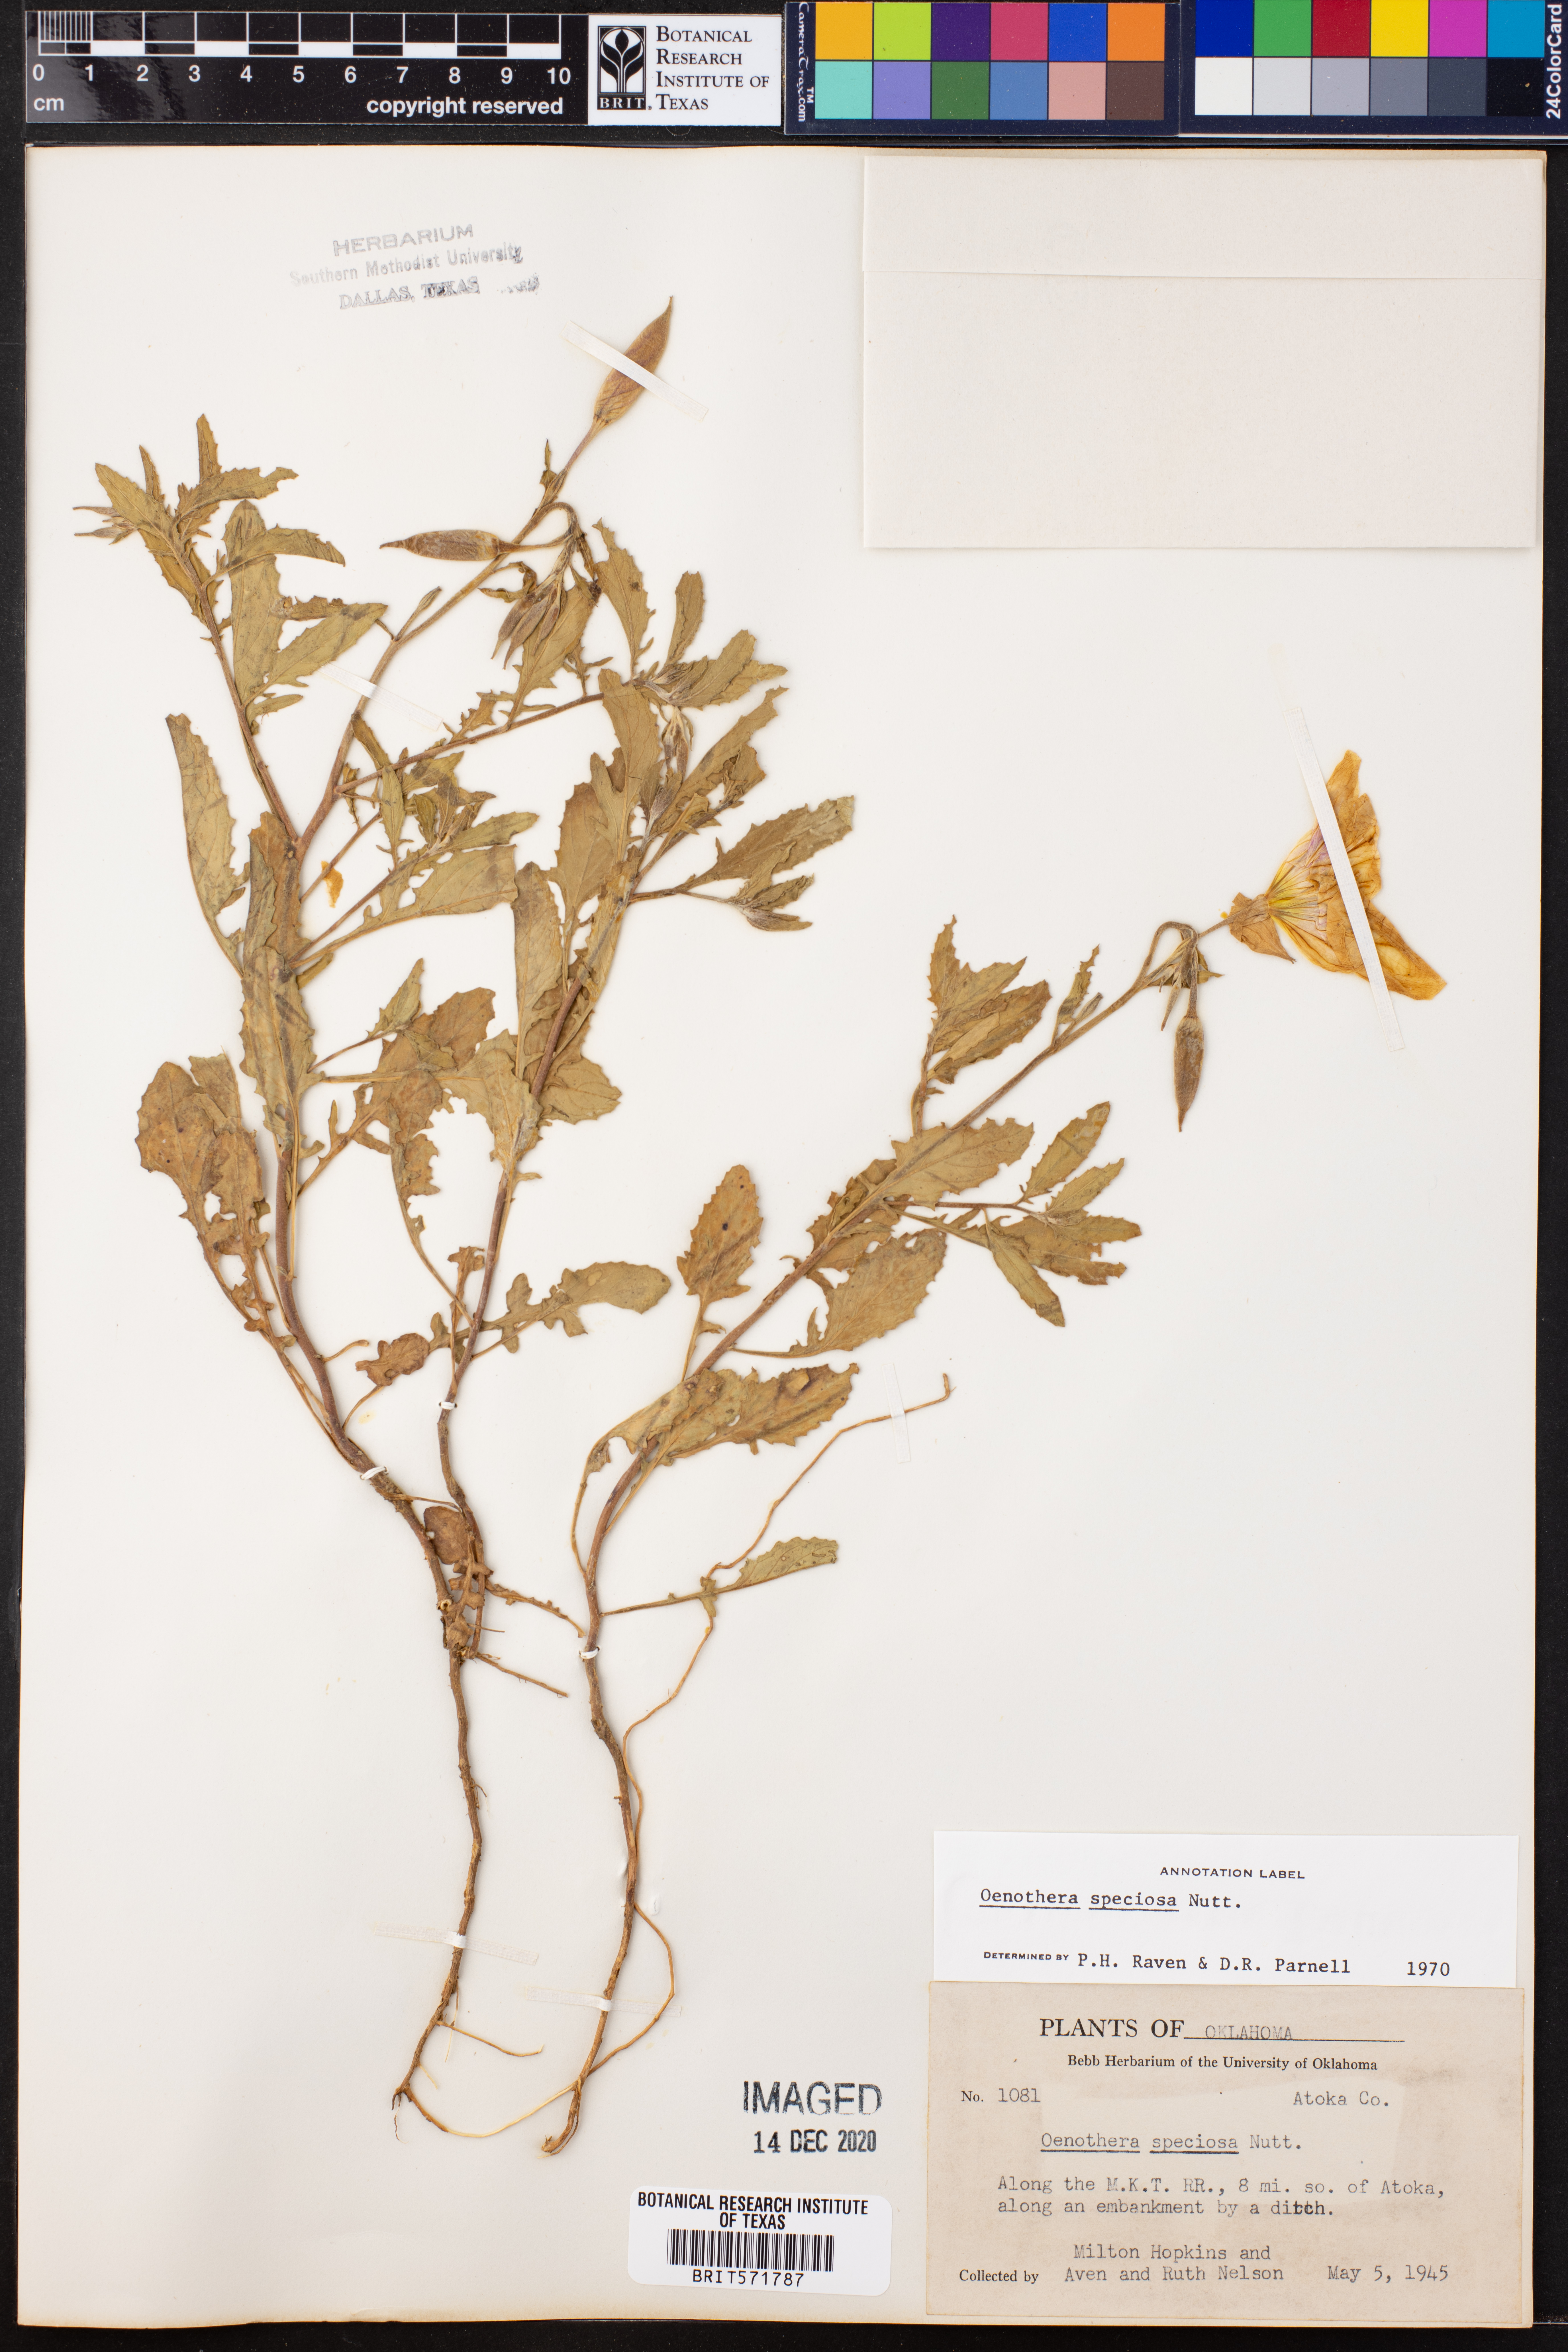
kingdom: Plantae
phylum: Tracheophyta
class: Magnoliopsida
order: Myrtales
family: Onagraceae
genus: Oenothera
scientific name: Oenothera speciosa
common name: White evening-primrose
